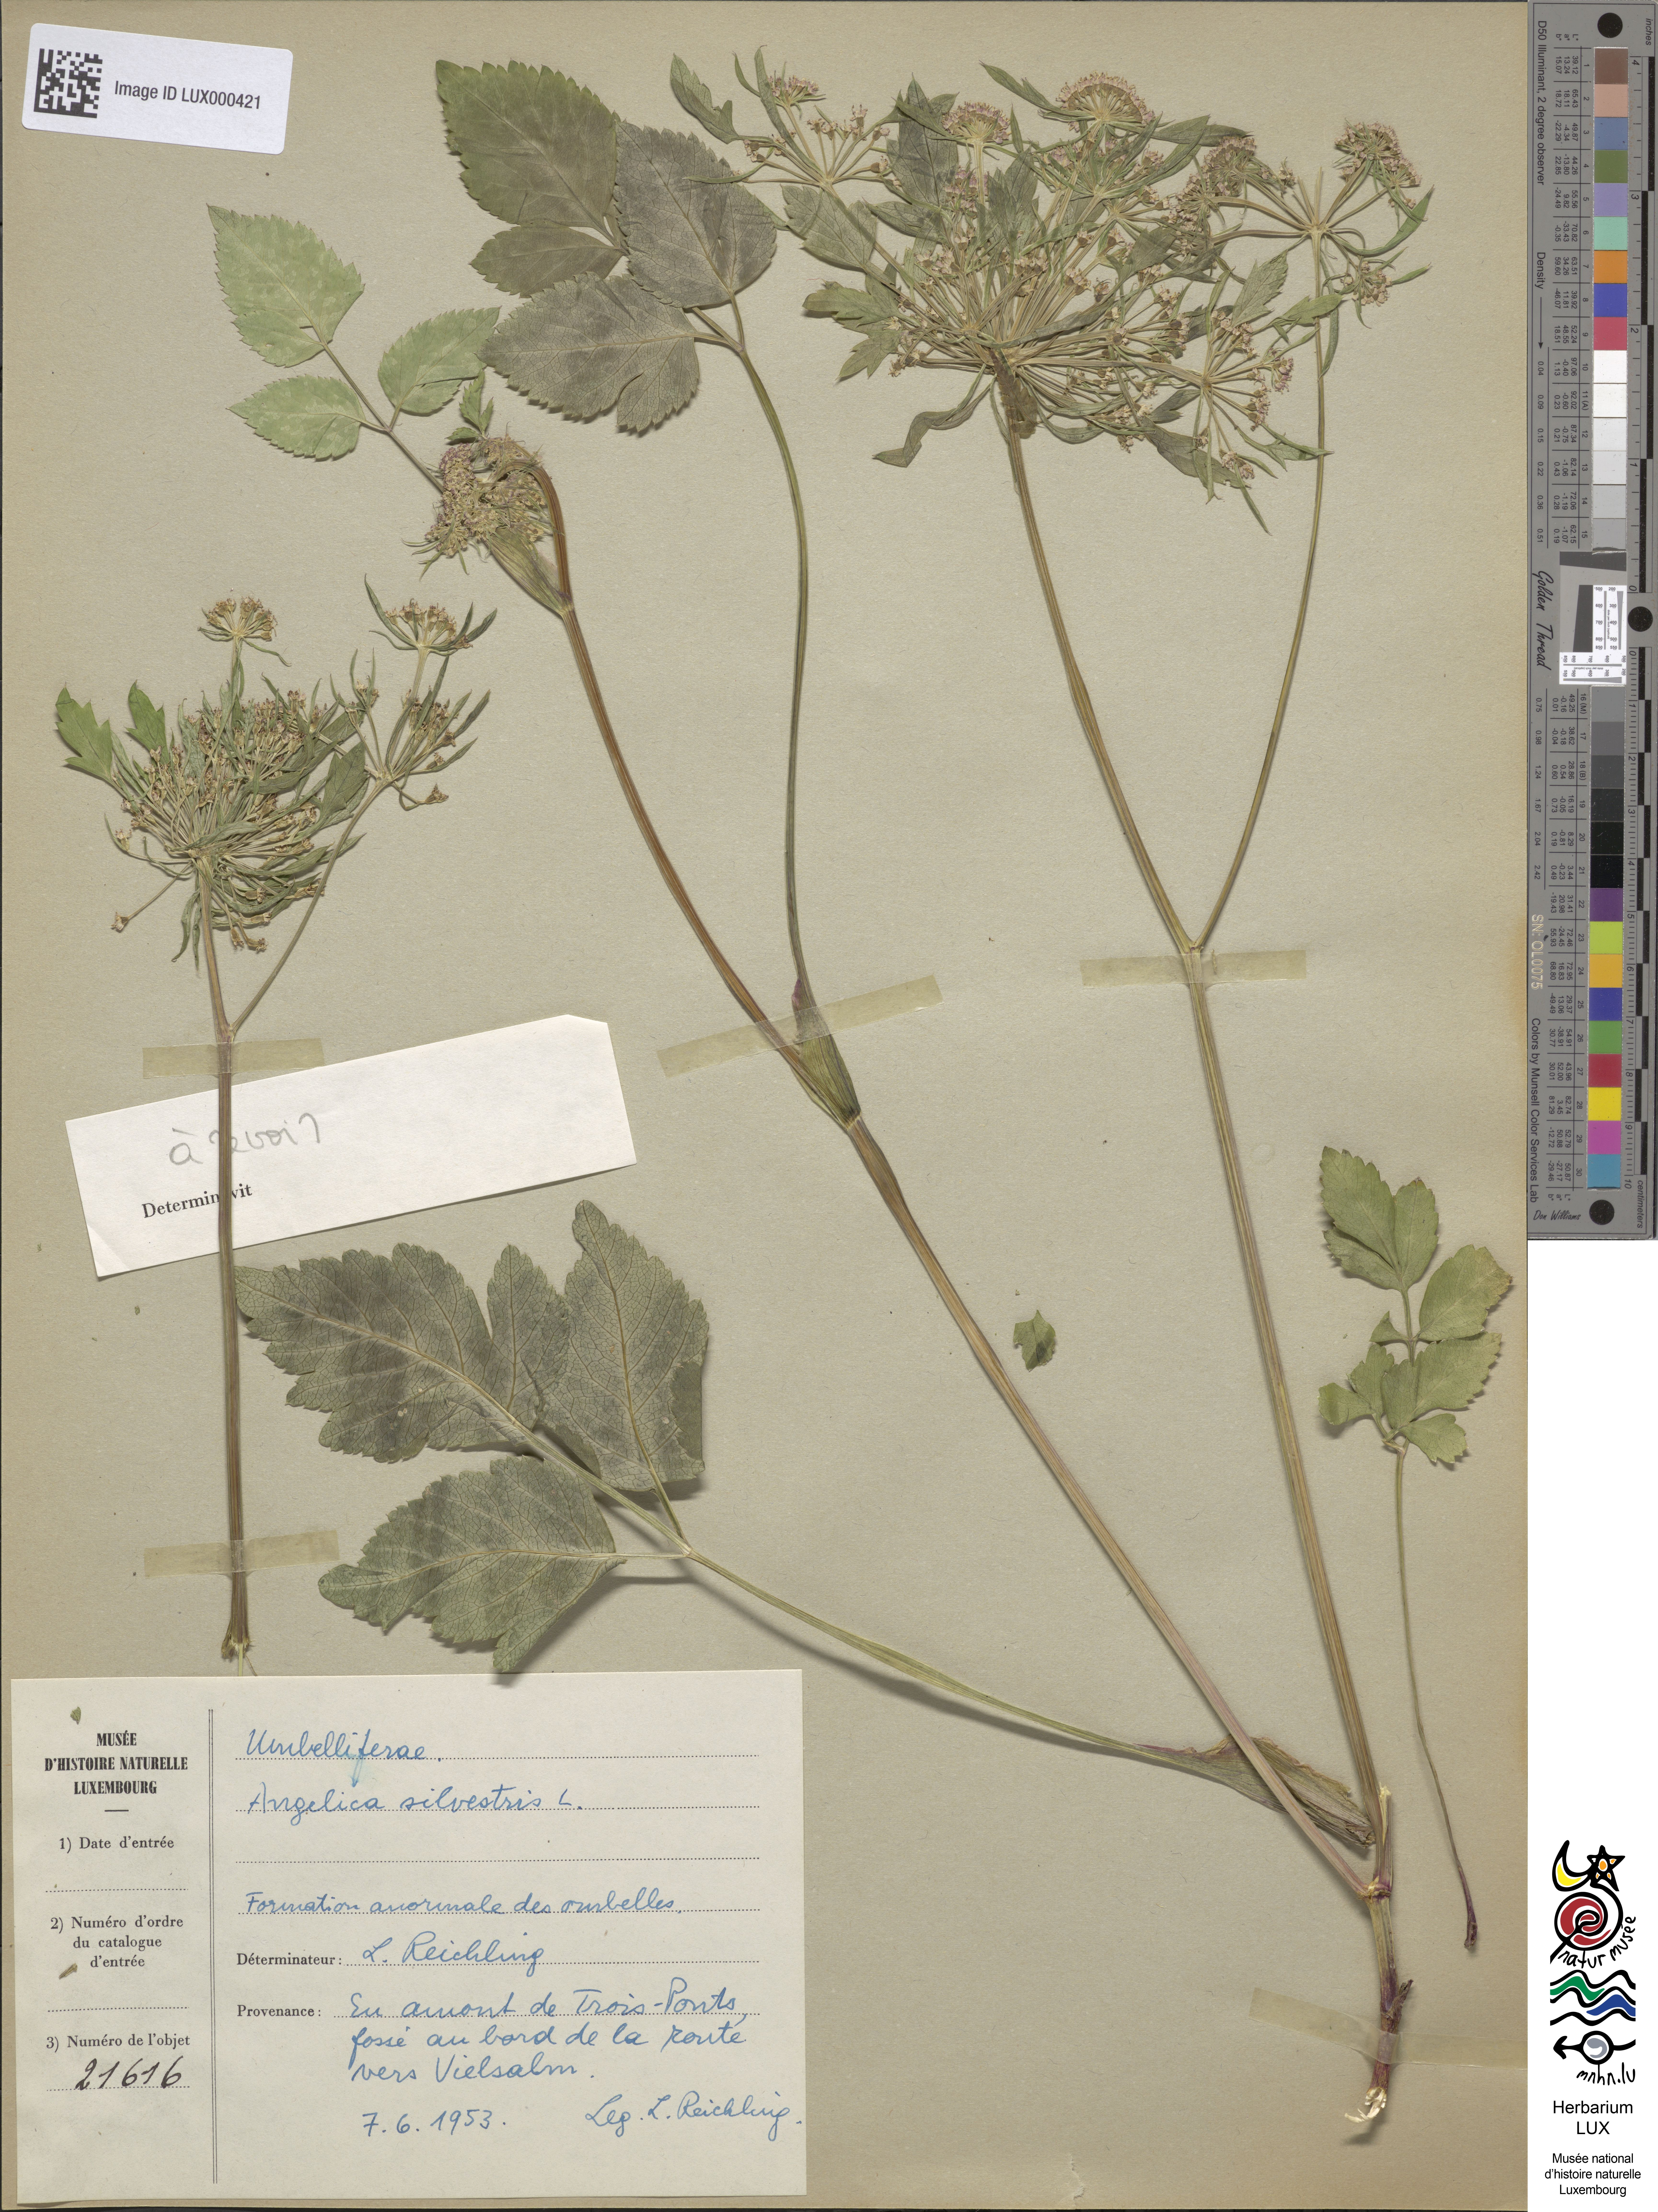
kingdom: Plantae
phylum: Tracheophyta
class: Magnoliopsida
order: Apiales
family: Apiaceae
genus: Angelica
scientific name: Angelica sylvestris
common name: Wild angelica
